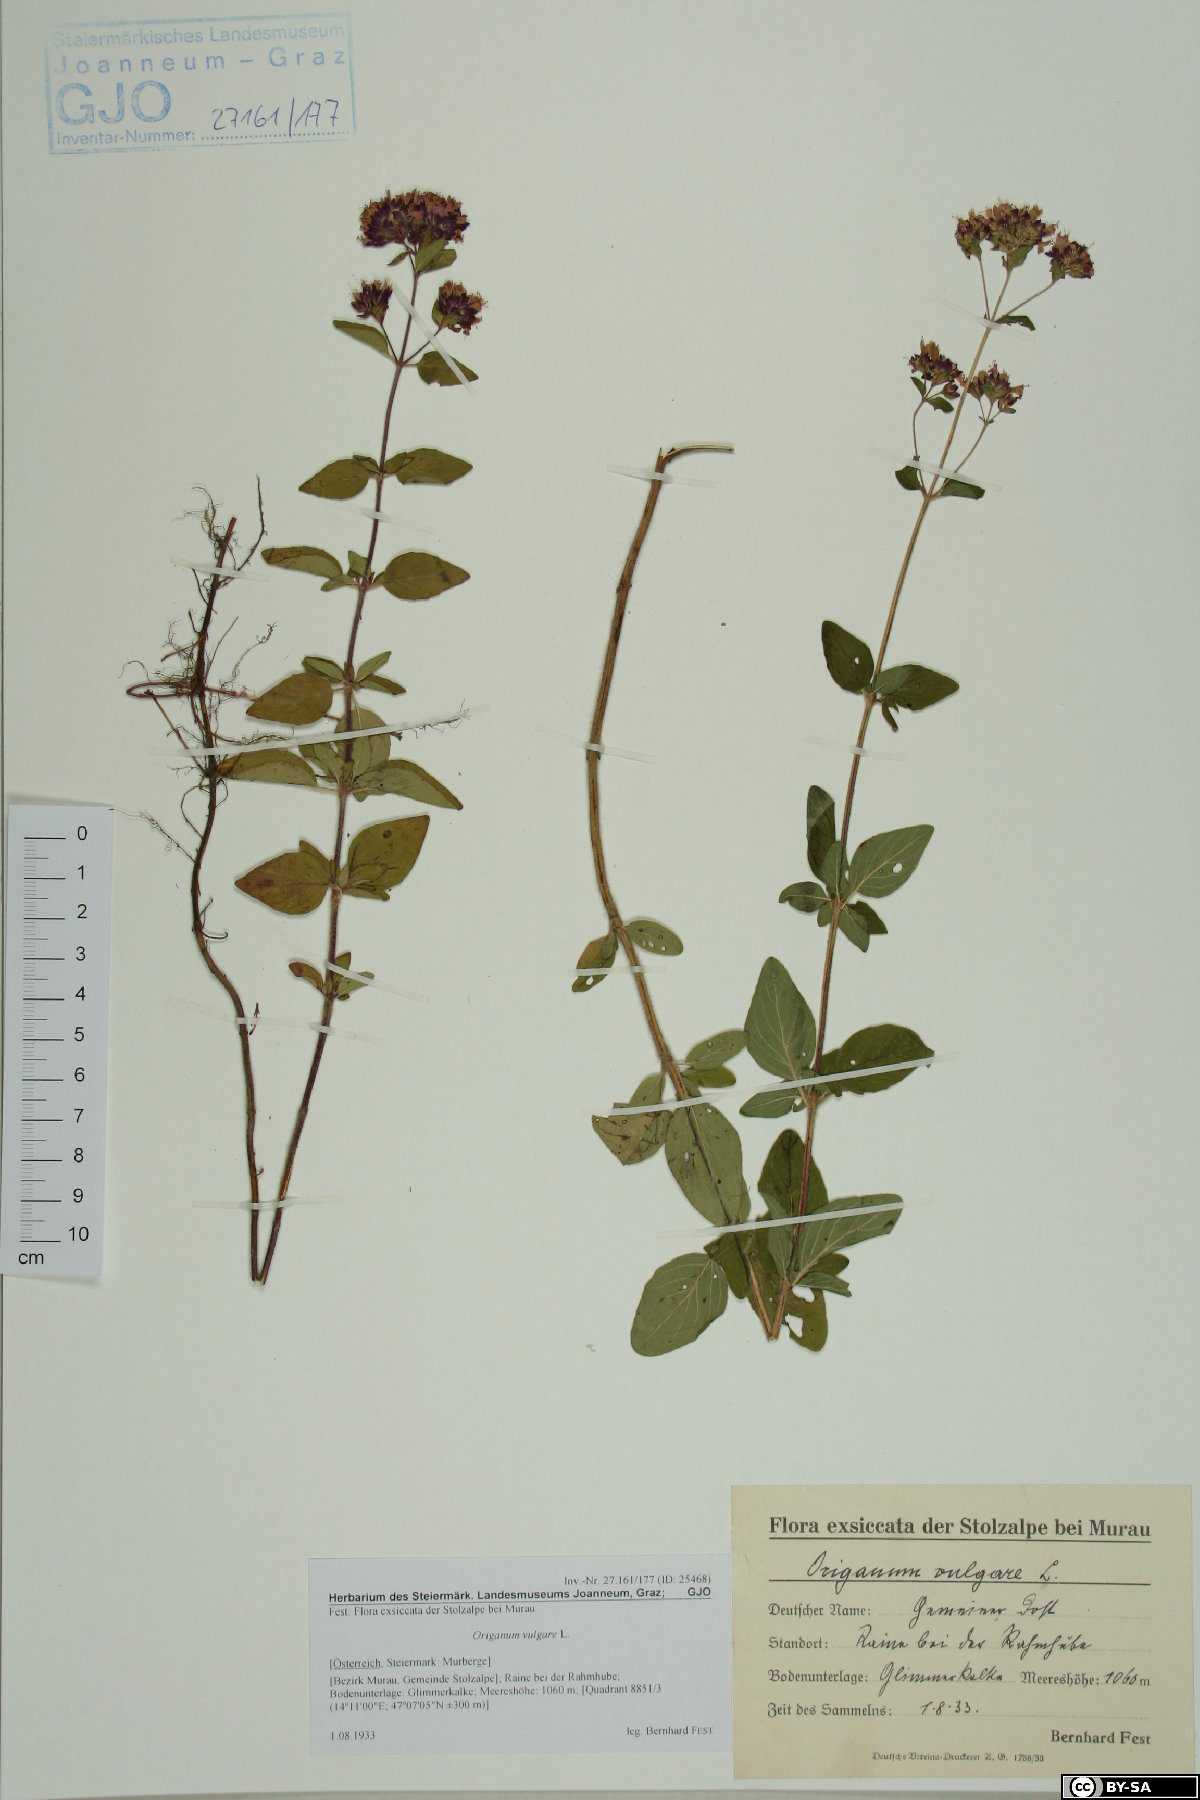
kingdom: Plantae
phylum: Tracheophyta
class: Magnoliopsida
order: Lamiales
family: Lamiaceae
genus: Origanum
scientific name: Origanum vulgare
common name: Wild marjoram
